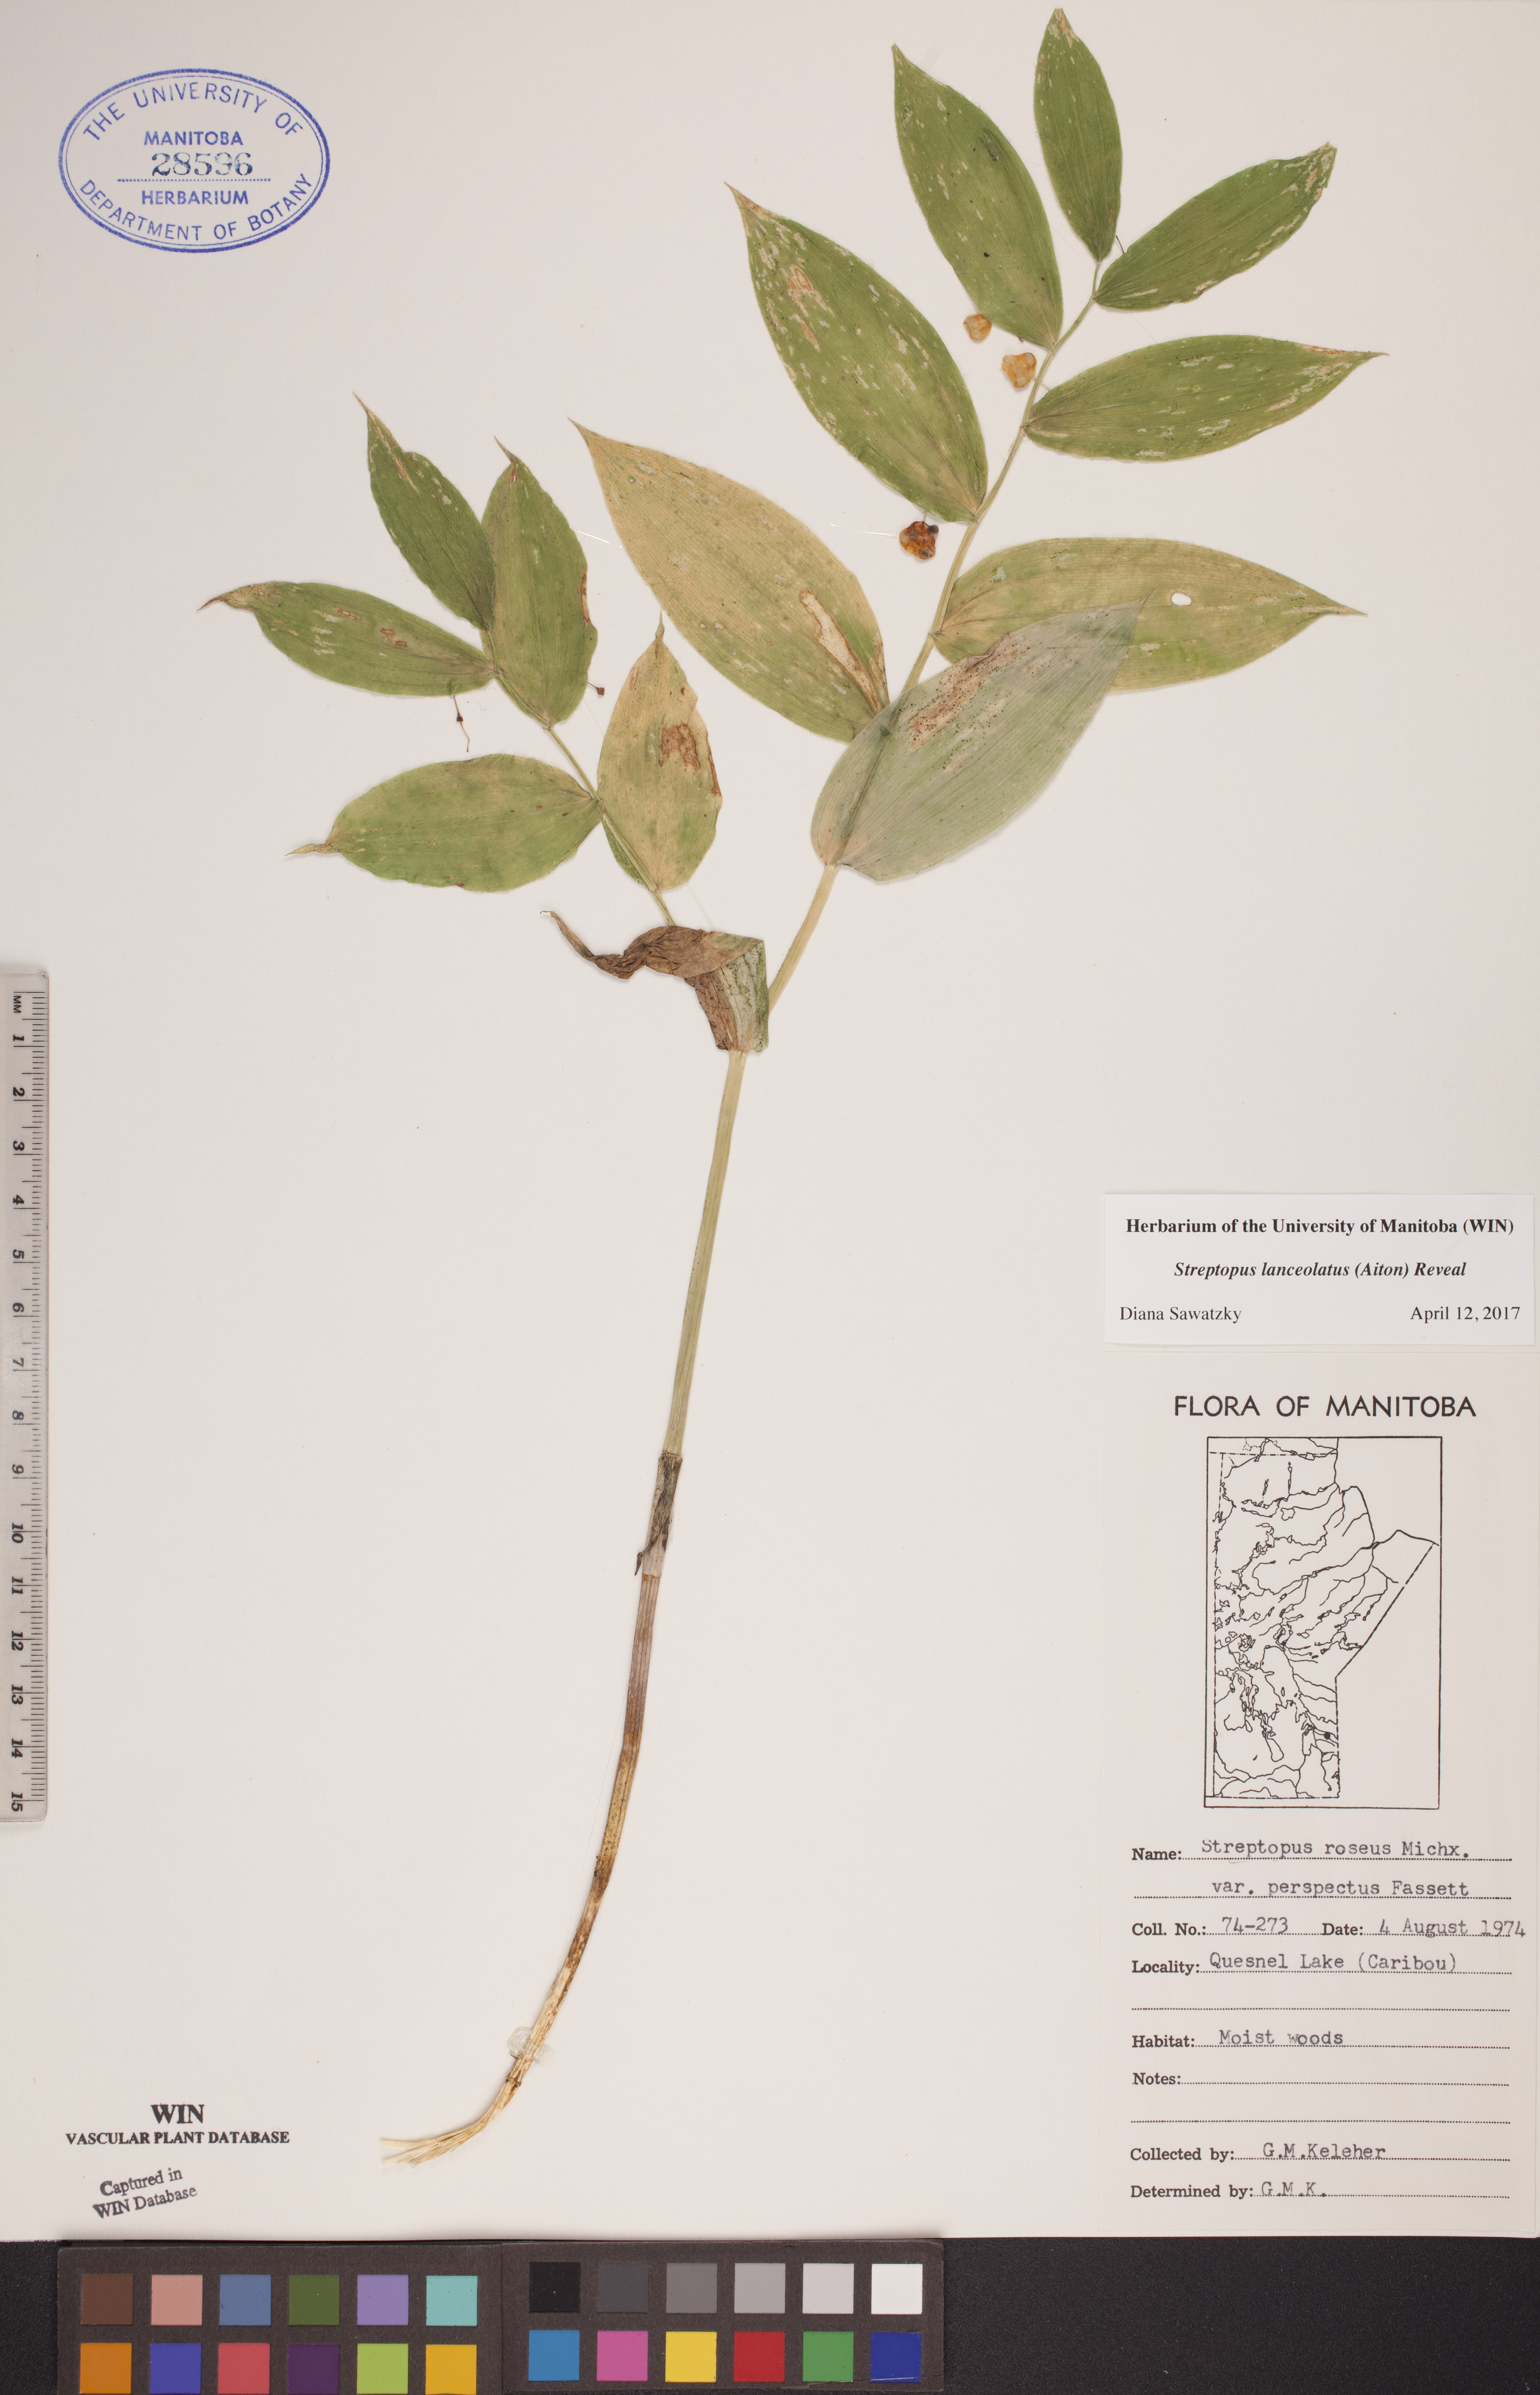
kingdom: Plantae
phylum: Tracheophyta
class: Liliopsida
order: Liliales
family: Liliaceae
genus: Streptopus
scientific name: Streptopus lanceolatus
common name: Rose mandarin
